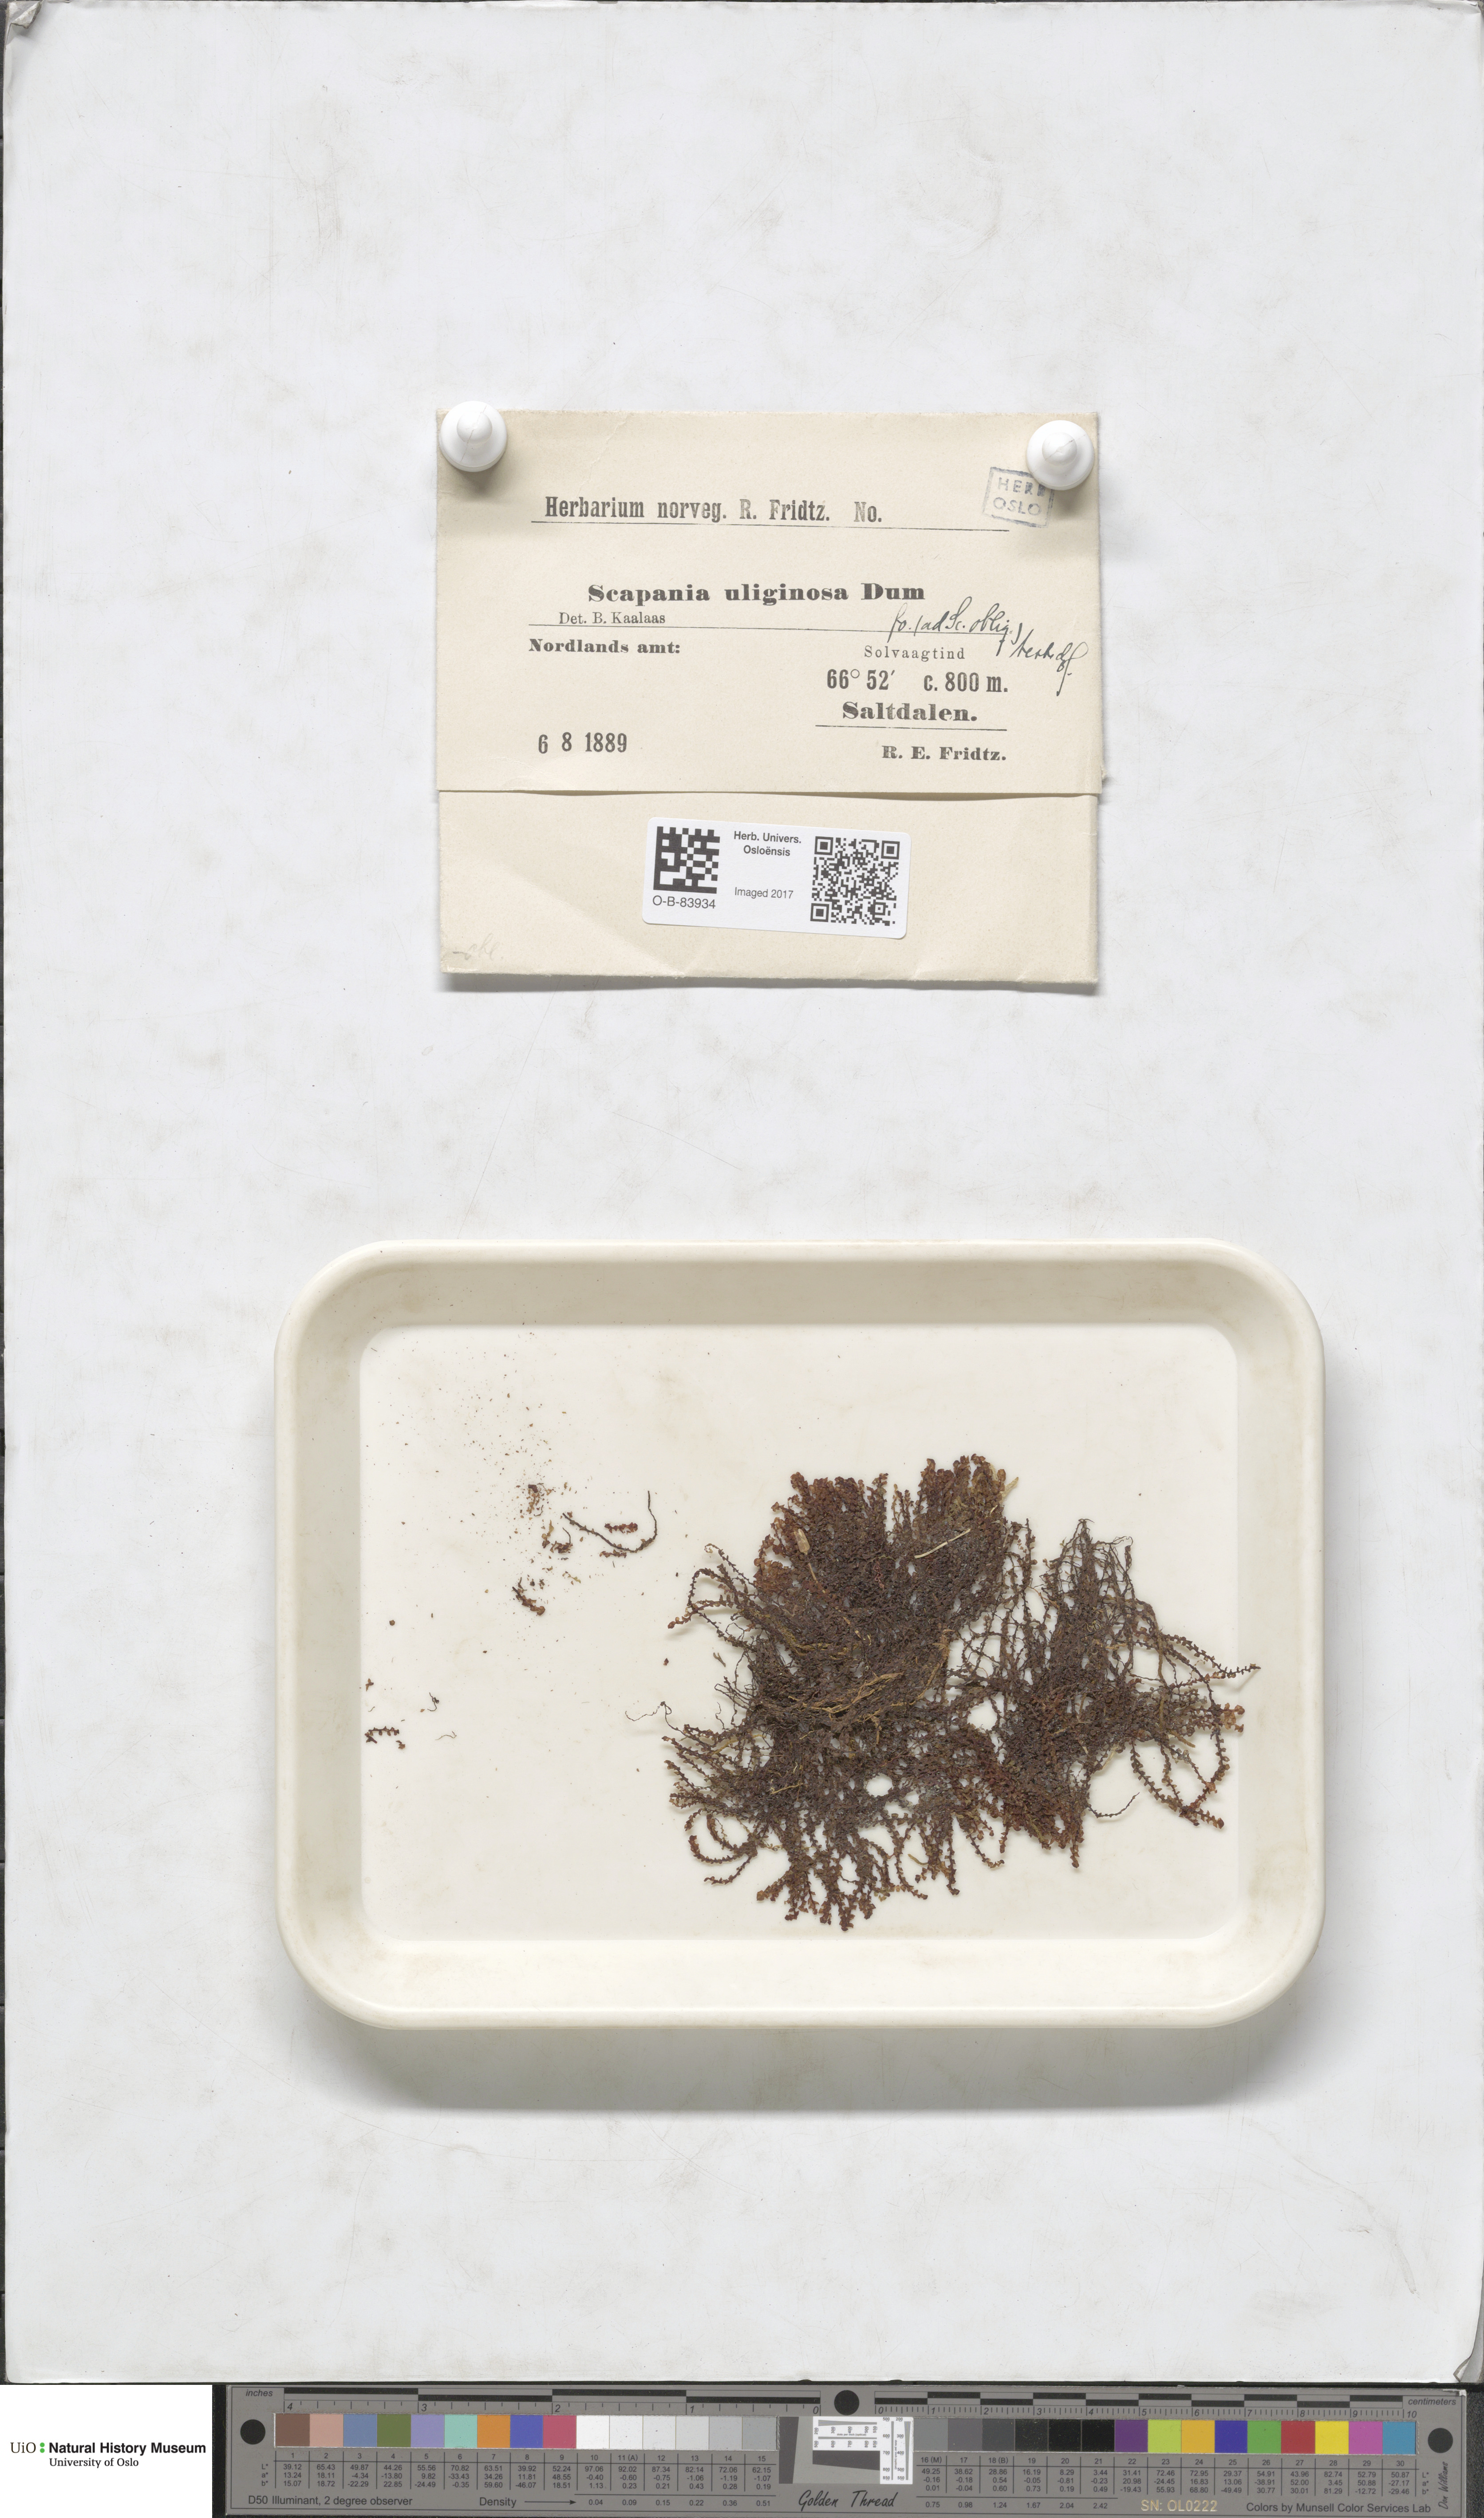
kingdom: Plantae
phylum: Marchantiophyta
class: Jungermanniopsida
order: Jungermanniales
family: Scapaniaceae
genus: Scapania
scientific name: Scapania uliginosa
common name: Marsh earwort
